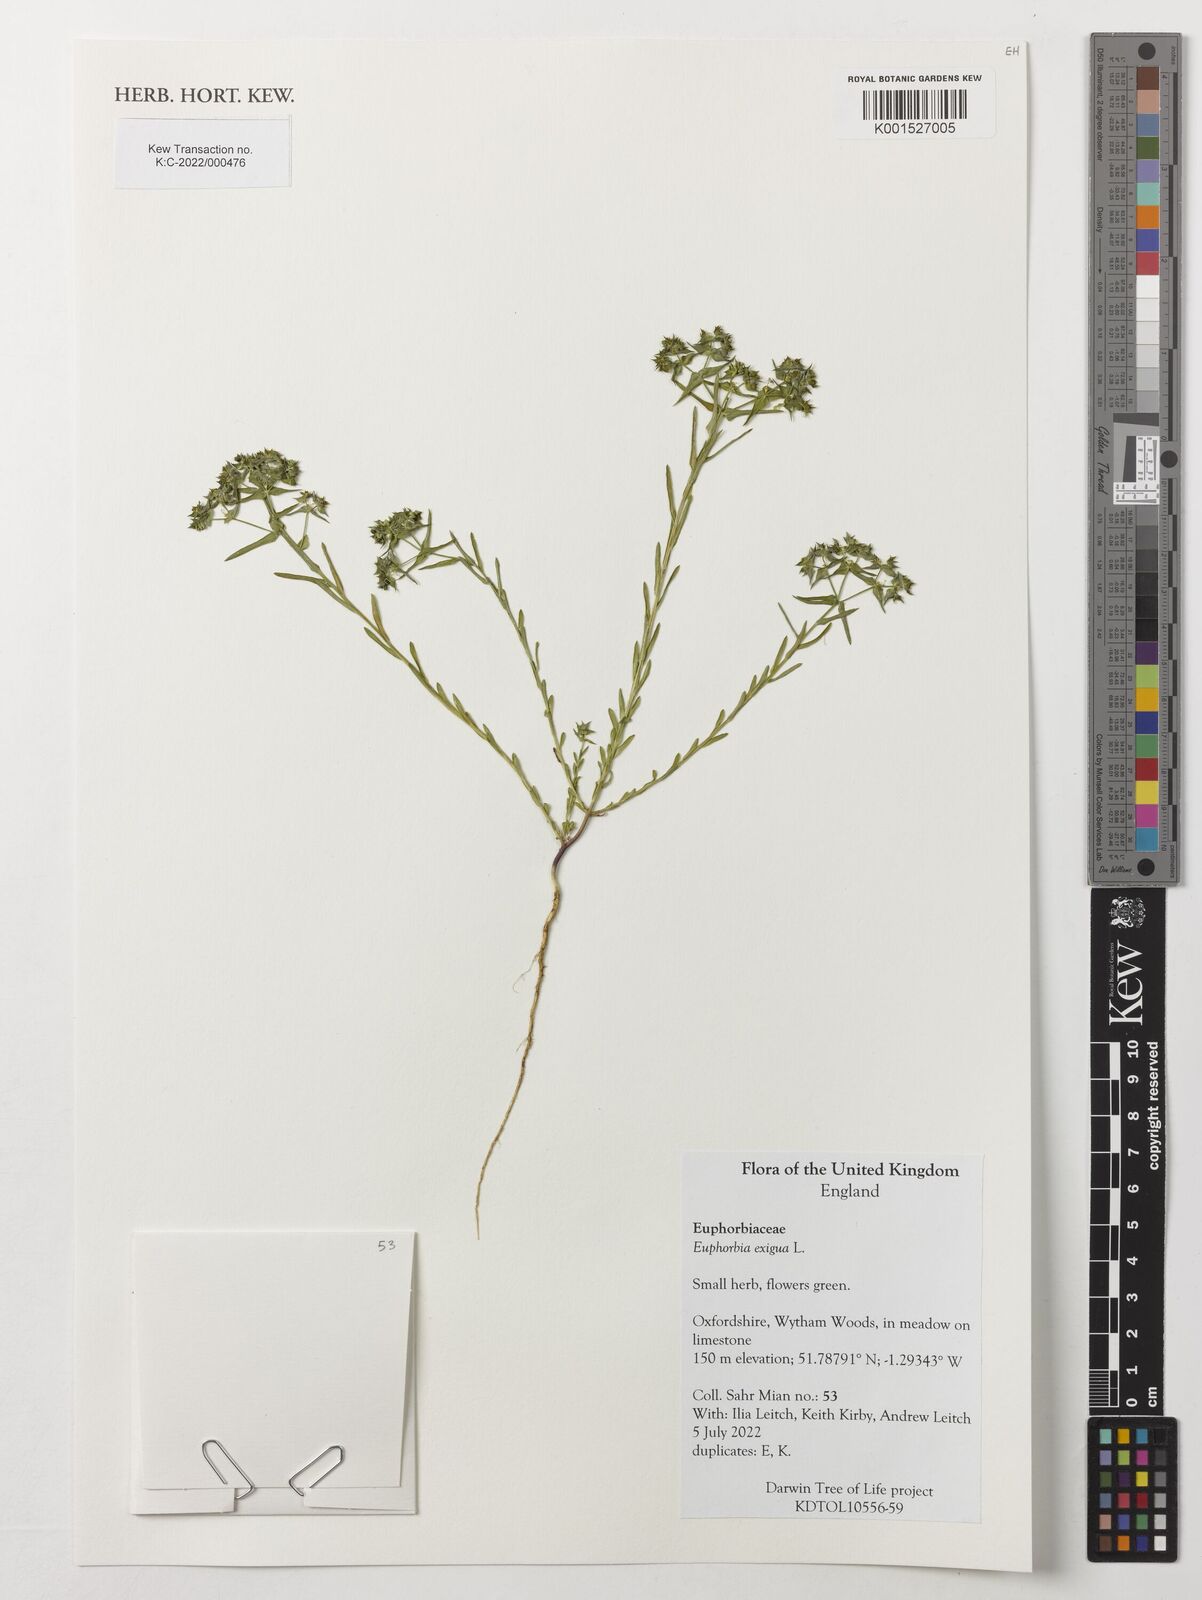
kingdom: Plantae
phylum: Tracheophyta
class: Magnoliopsida
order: Malpighiales
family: Euphorbiaceae
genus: Euphorbia
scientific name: Euphorbia exigua
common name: Dwarf spurge
